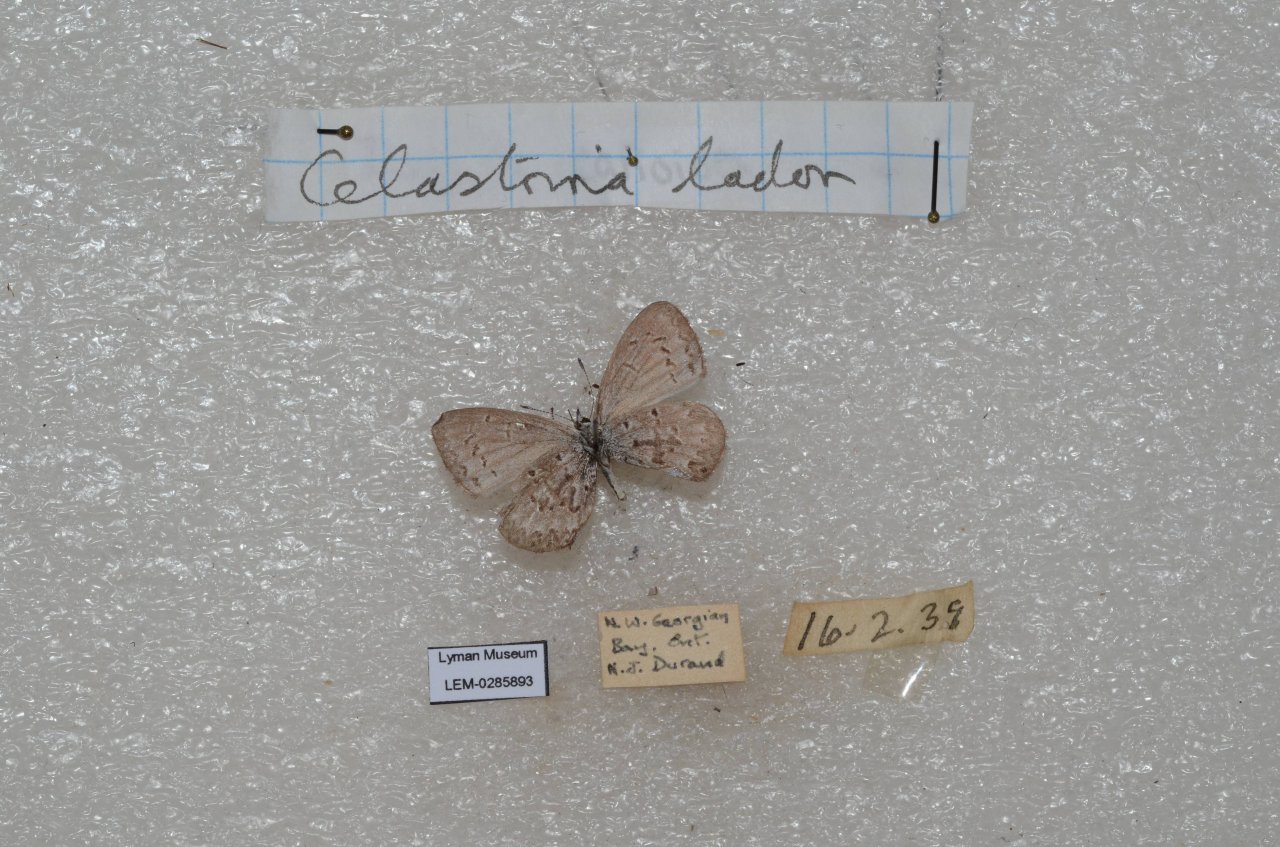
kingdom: Animalia
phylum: Arthropoda
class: Insecta
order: Lepidoptera
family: Lycaenidae
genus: Celastrina
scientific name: Celastrina lucia
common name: Northern Spring Azure
